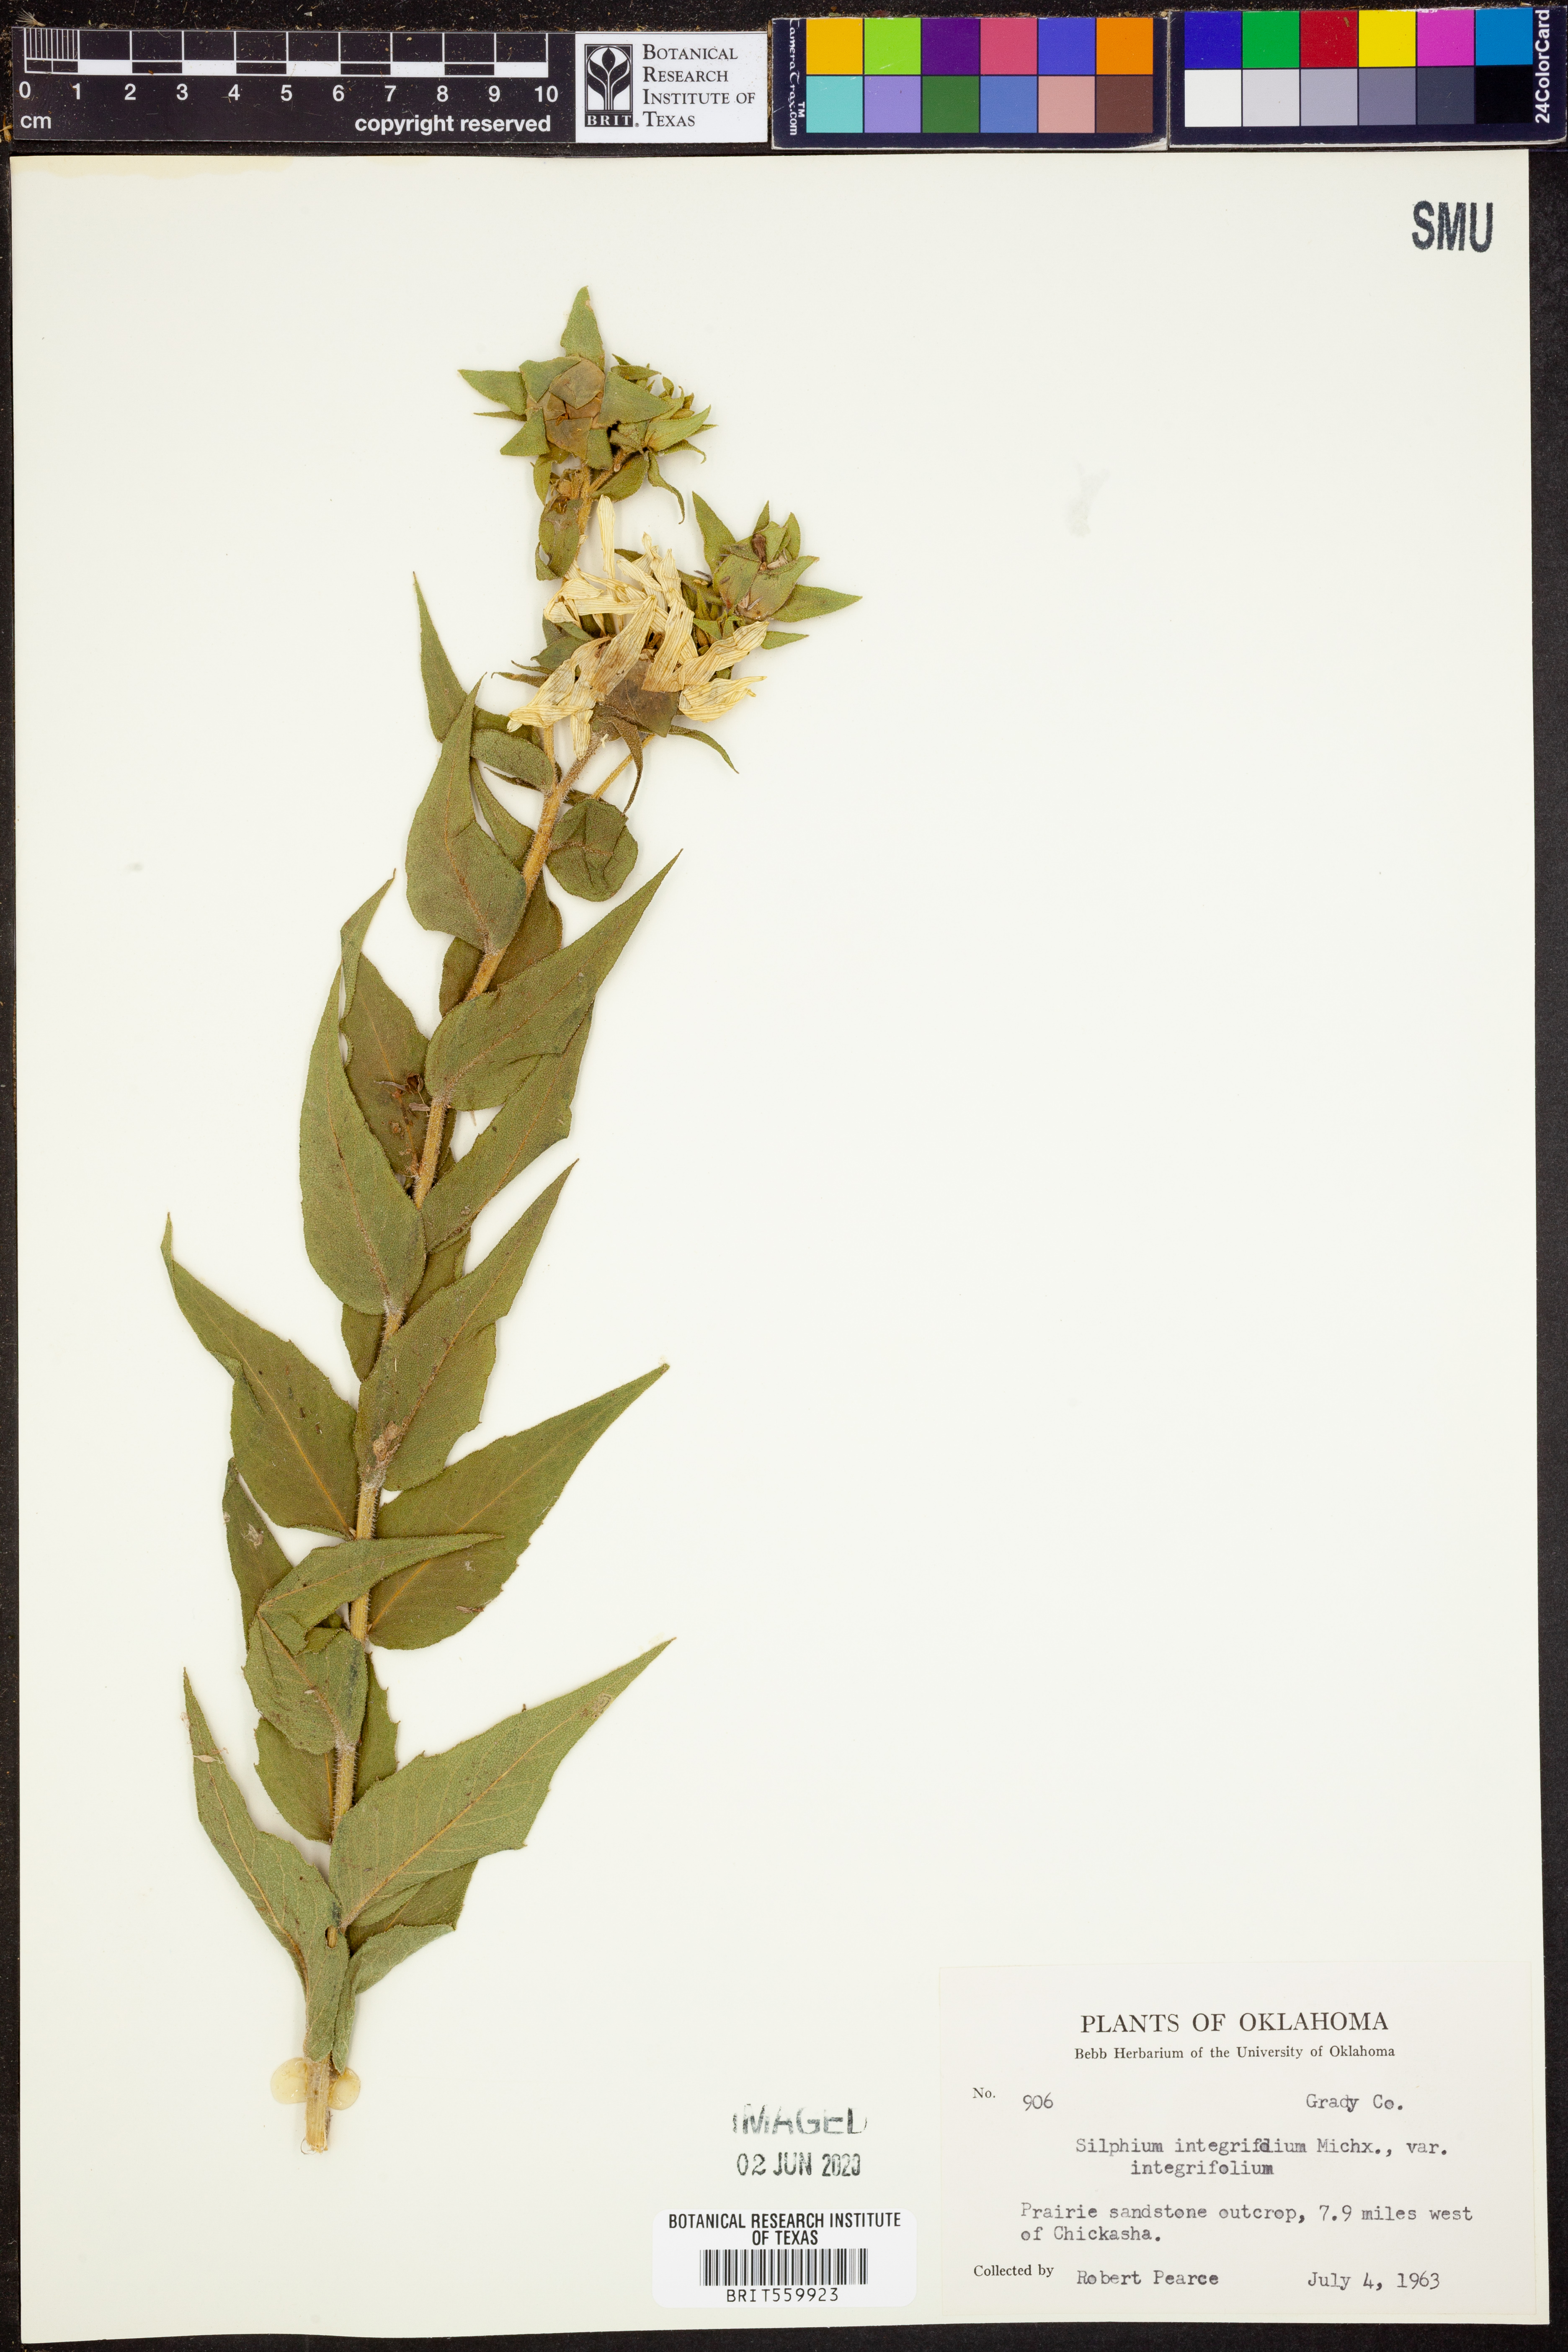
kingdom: Plantae
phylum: Tracheophyta
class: Magnoliopsida
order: Asterales
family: Asteraceae
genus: Silphium
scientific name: Silphium integrifolium
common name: Whole-leaf rosinweed
